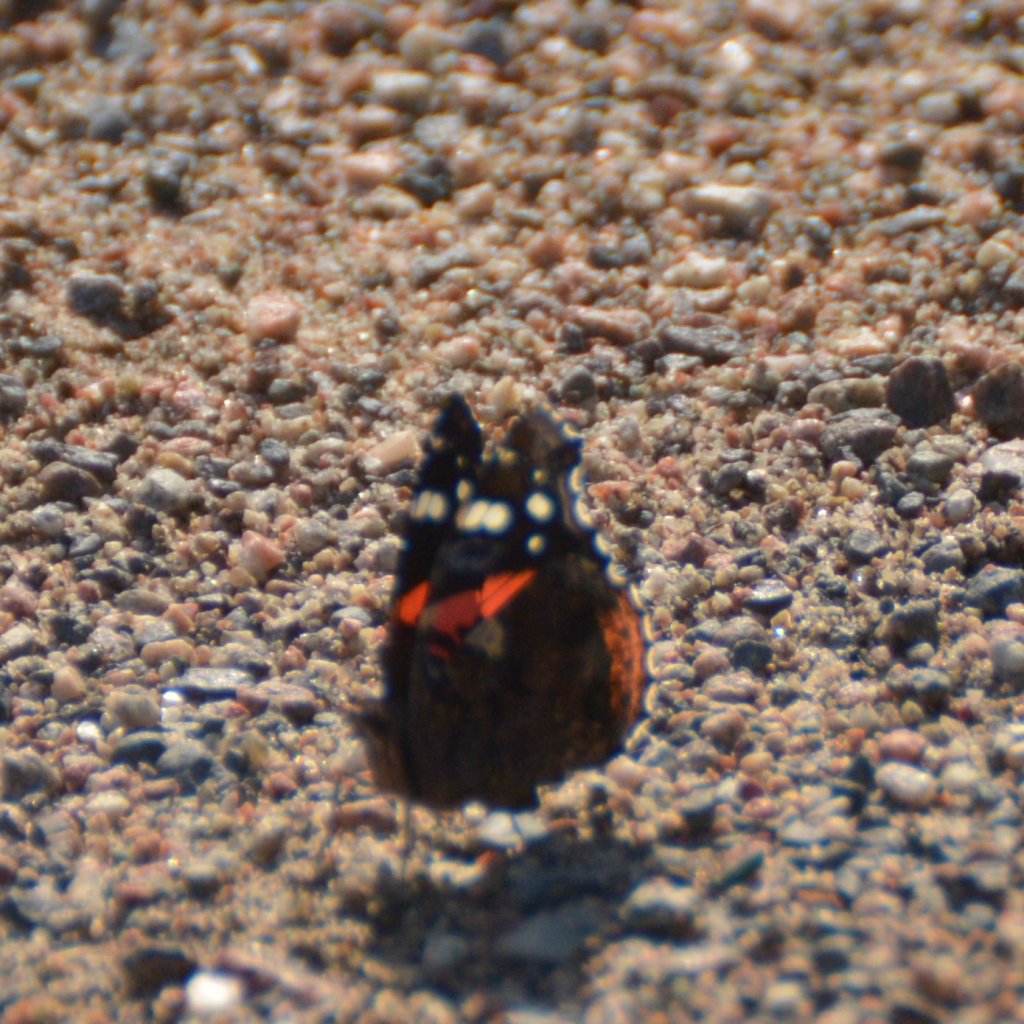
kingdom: Animalia
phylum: Arthropoda
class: Insecta
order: Lepidoptera
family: Nymphalidae
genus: Vanessa
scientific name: Vanessa atalanta
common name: Red Admiral
